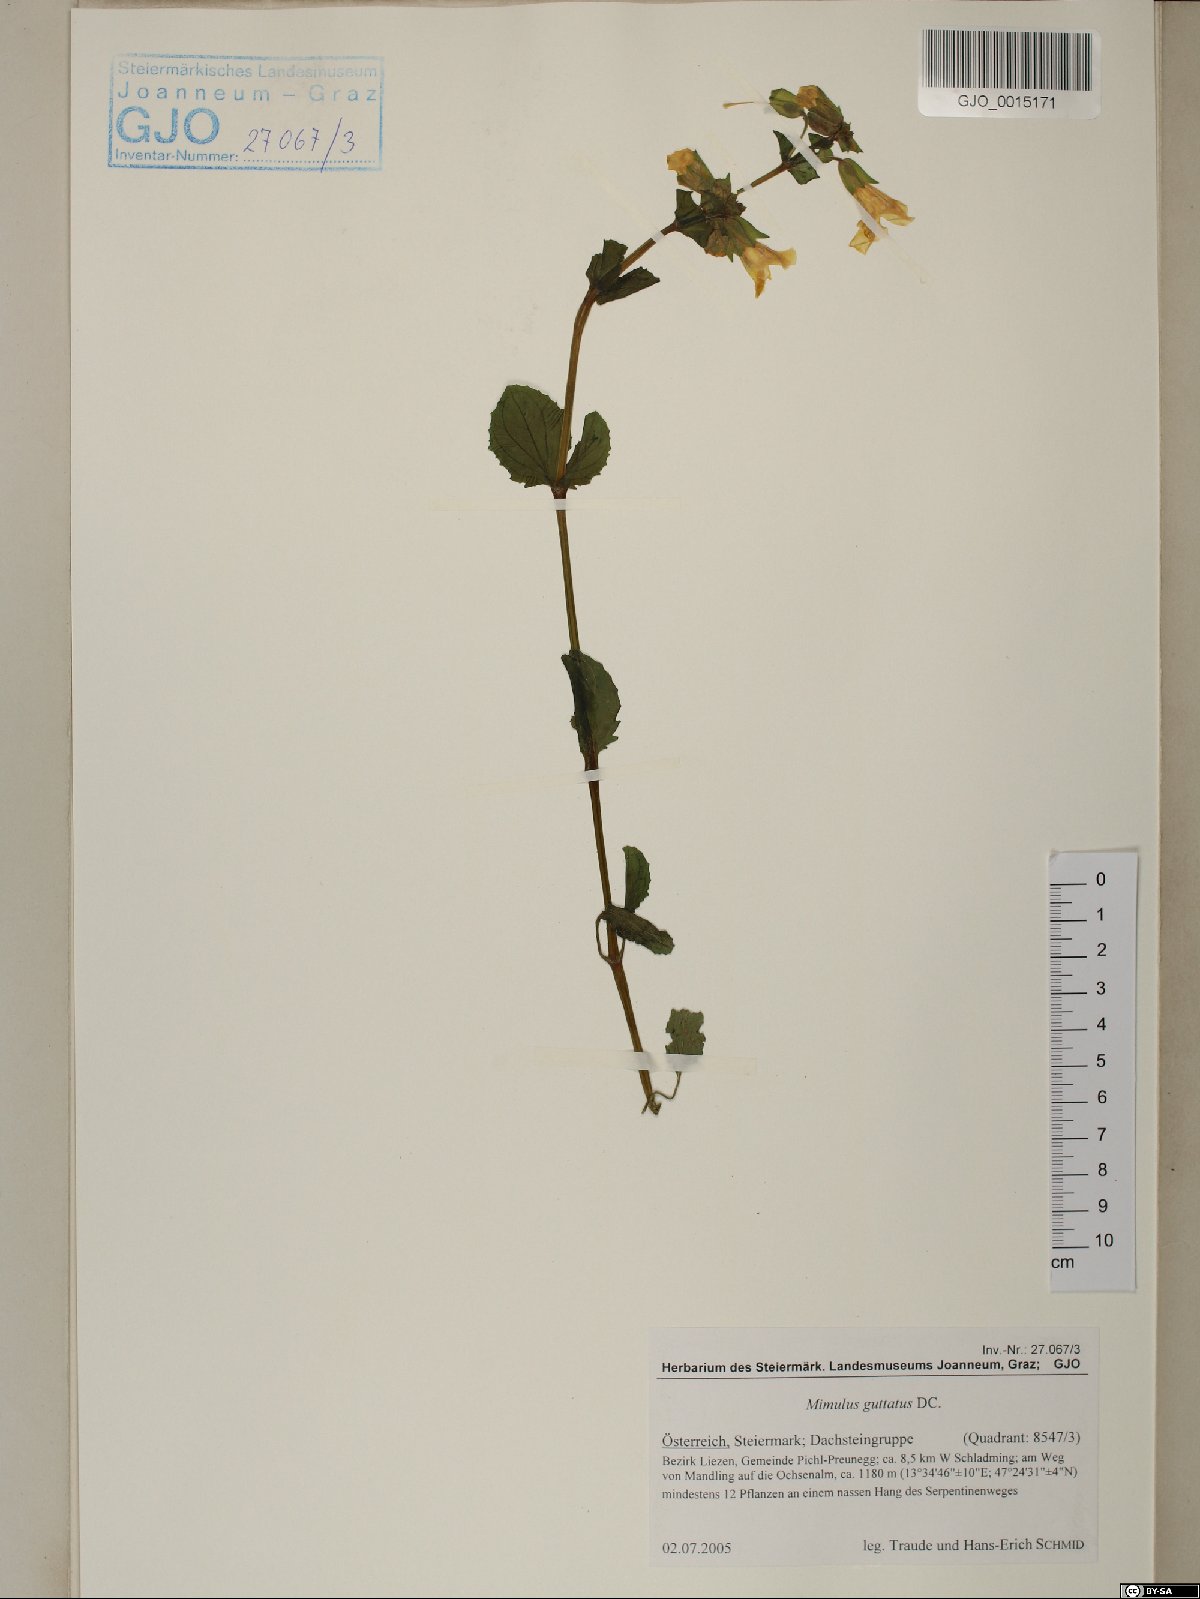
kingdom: Plantae
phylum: Tracheophyta
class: Magnoliopsida
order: Lamiales
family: Phrymaceae
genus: Erythranthe
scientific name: Erythranthe guttata
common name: Monkeyflower
